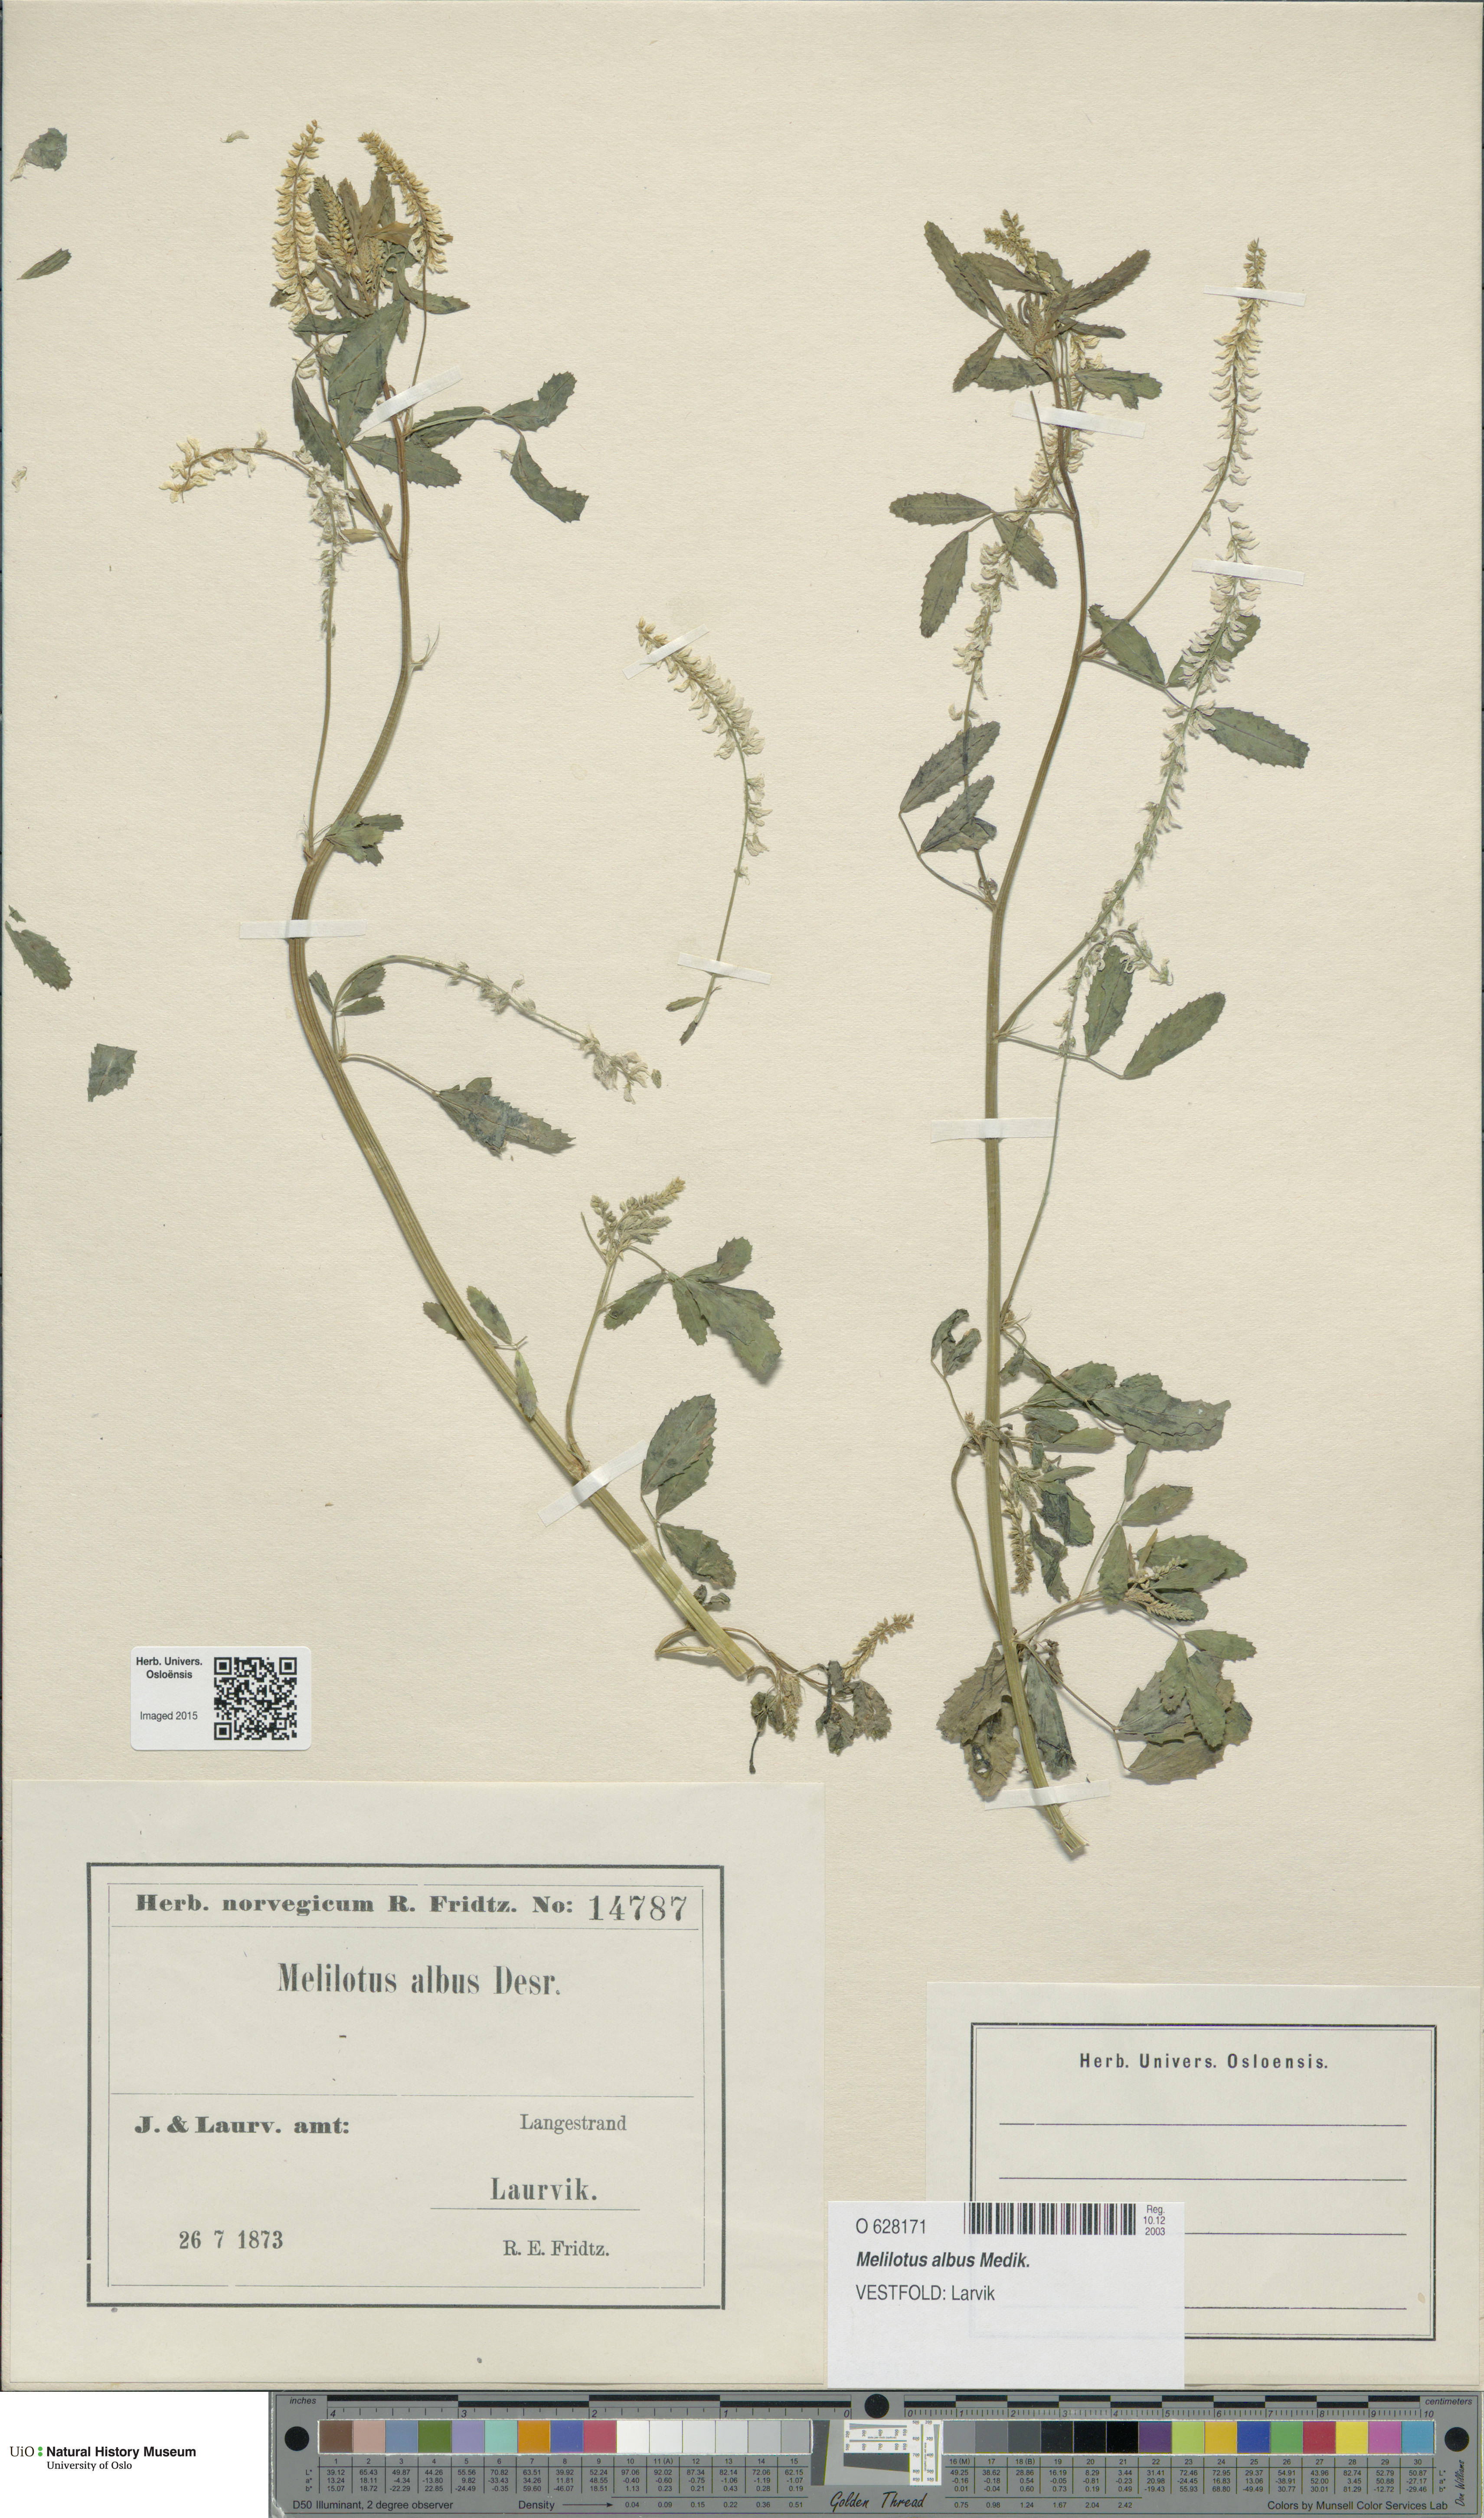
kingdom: Plantae
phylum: Tracheophyta
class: Magnoliopsida
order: Fabales
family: Fabaceae
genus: Melilotus
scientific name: Melilotus albus
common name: White melilot
